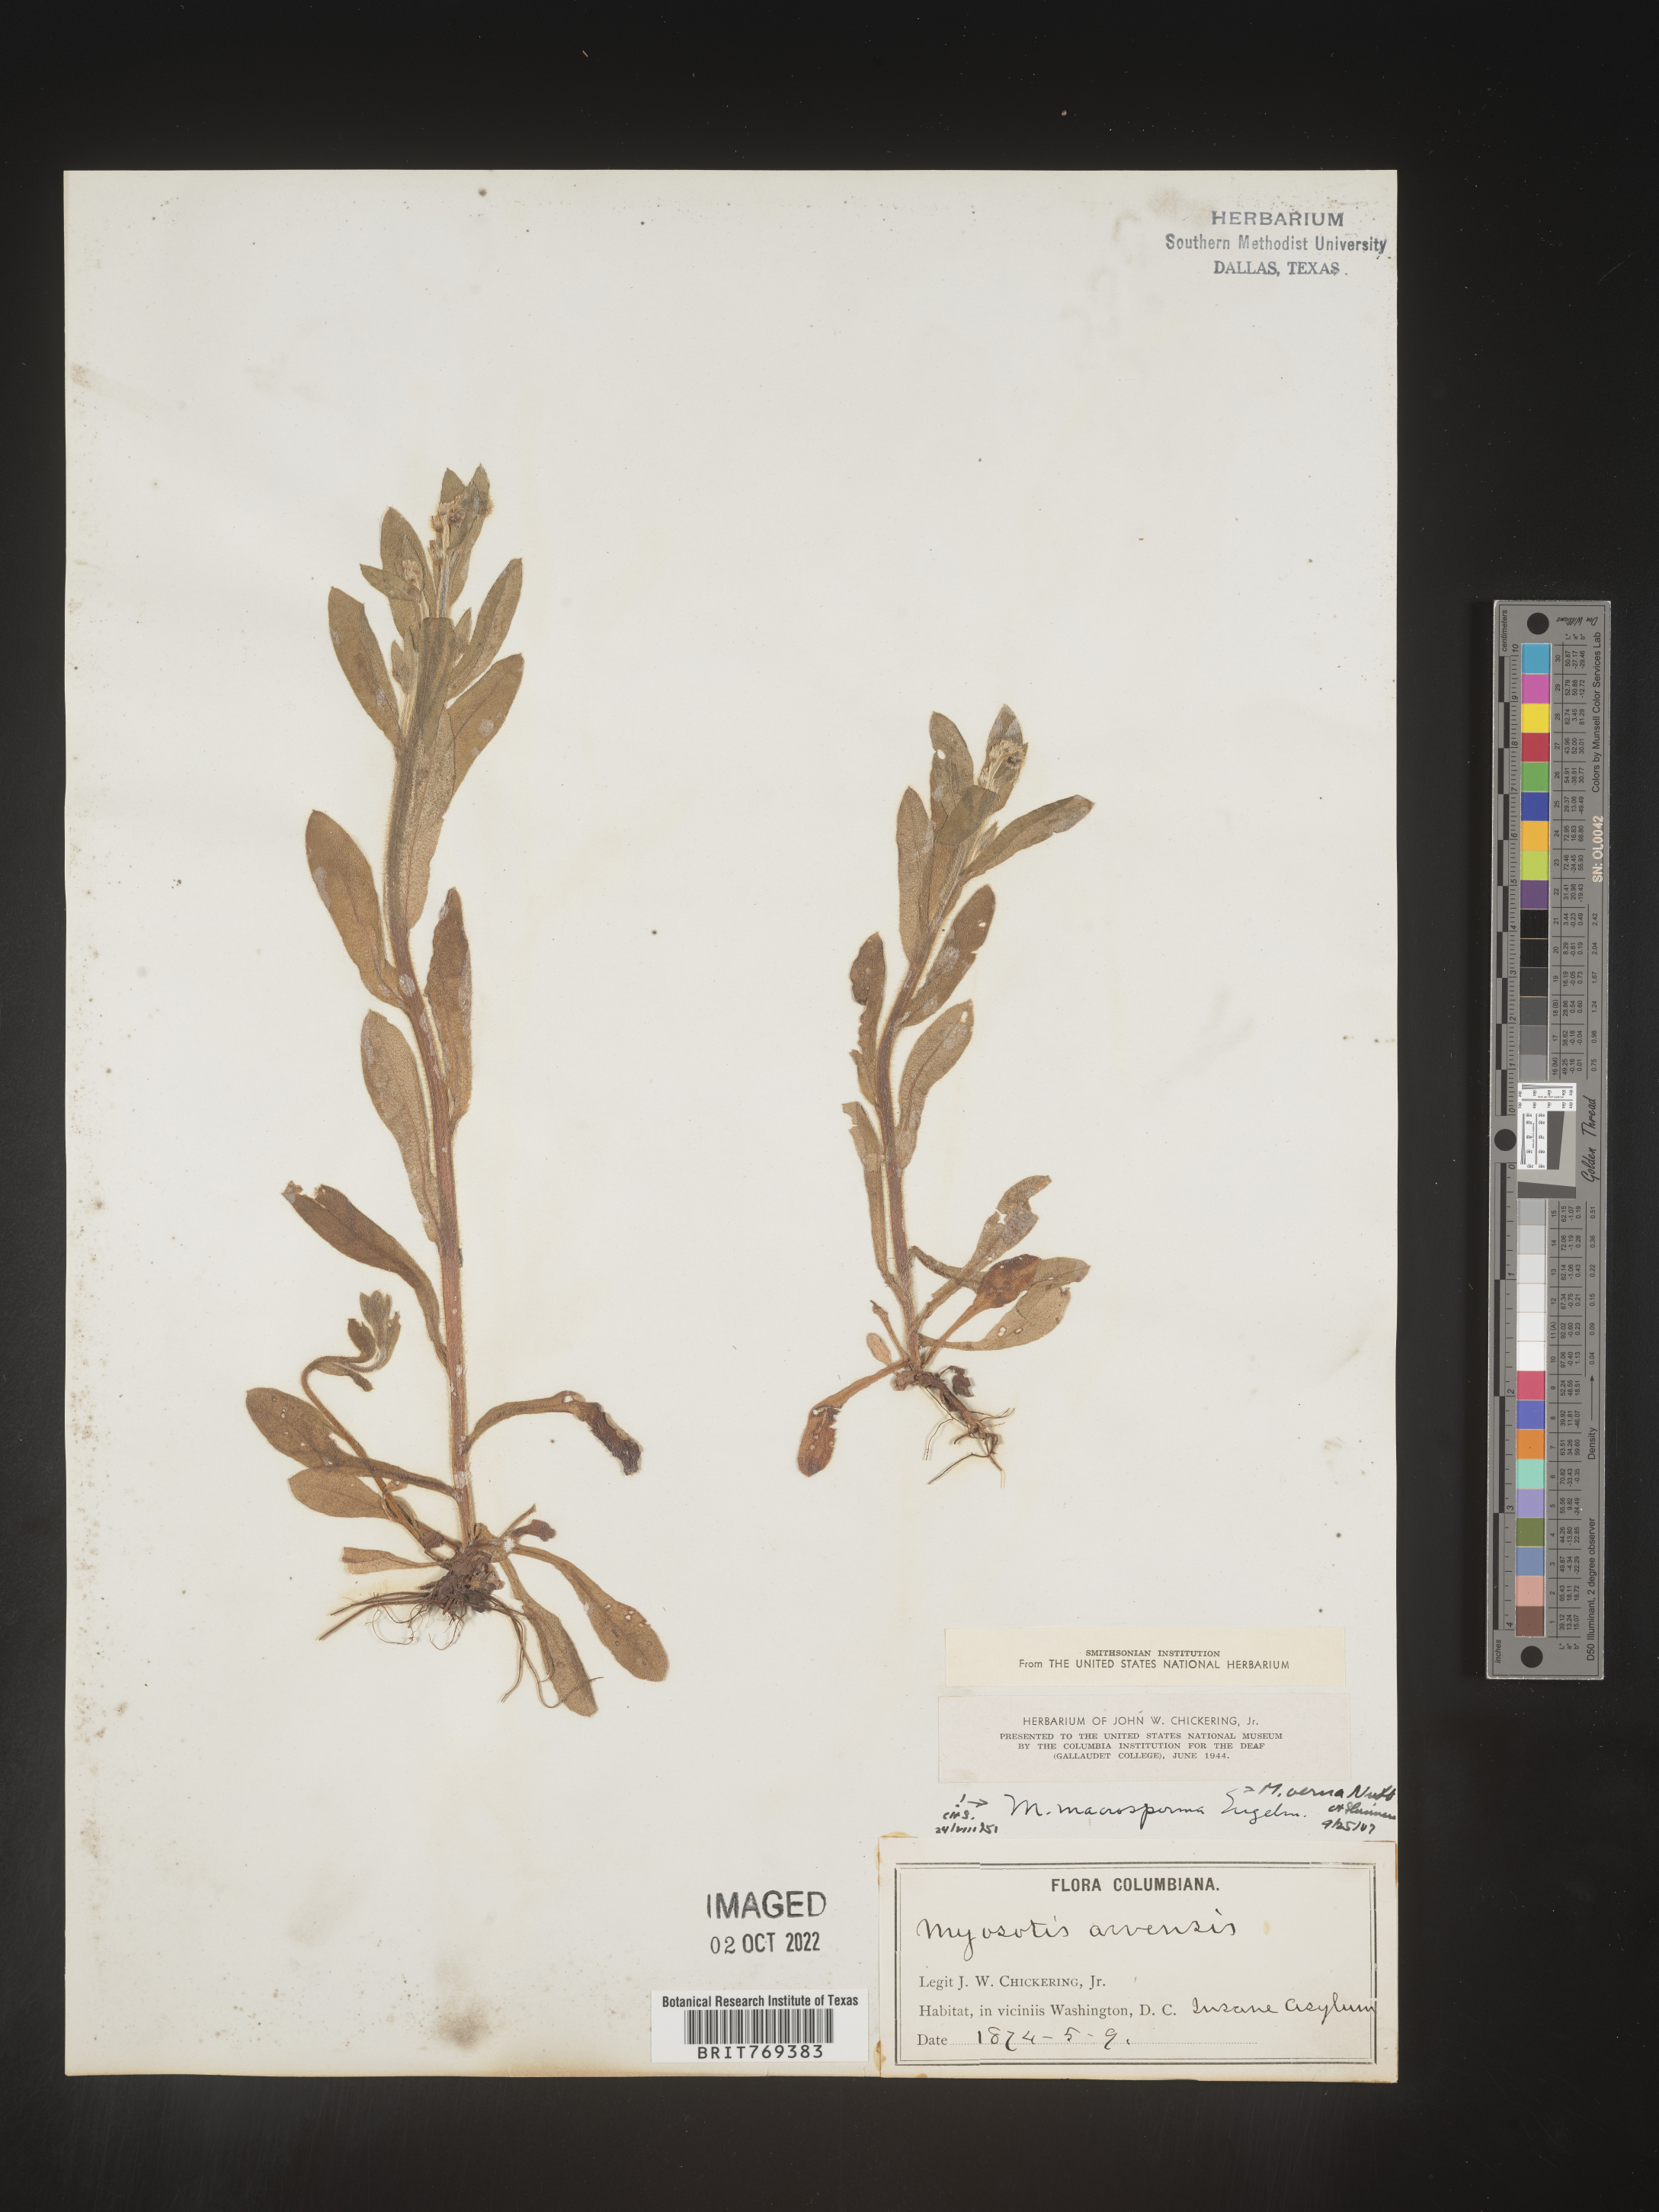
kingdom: Plantae
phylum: Tracheophyta
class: Magnoliopsida
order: Boraginales
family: Boraginaceae
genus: Myosotis
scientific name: Myosotis macrosperma
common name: Large-seed forget-me-not
